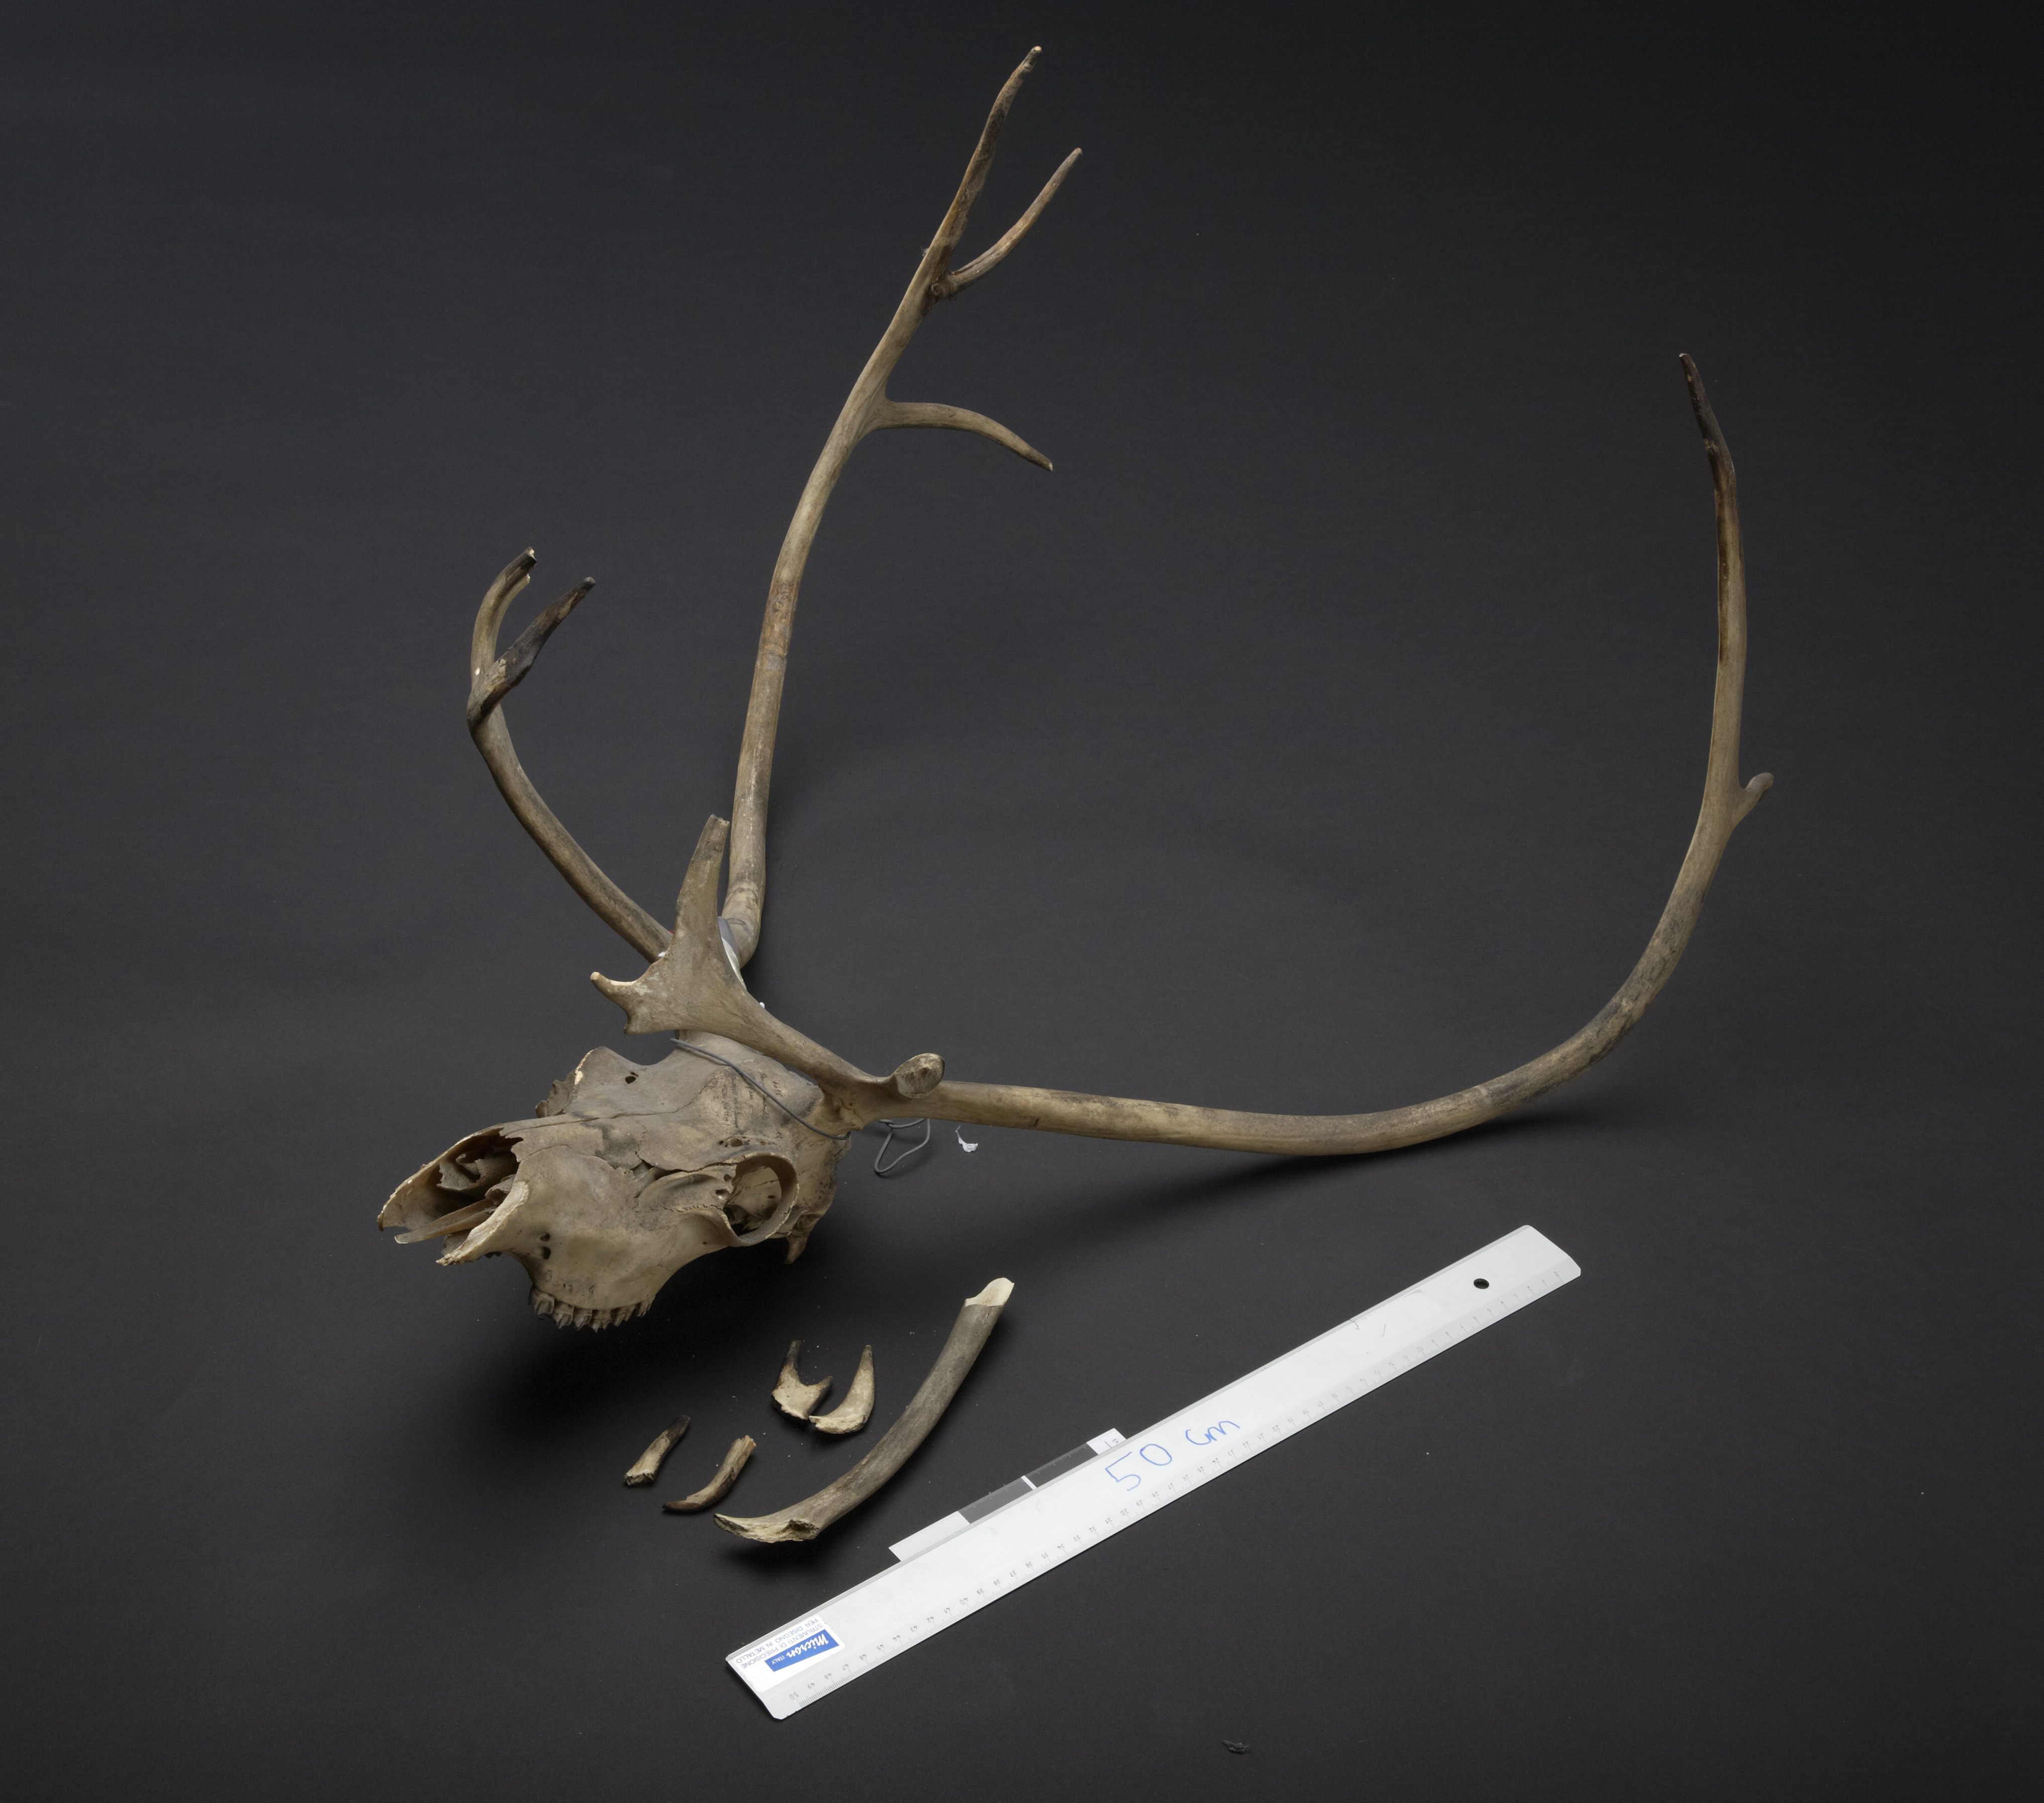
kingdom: Animalia
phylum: Chordata
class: Mammalia
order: Artiodactyla
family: Cervidae
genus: Rangifer
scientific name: Rangifer tarandus
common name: Reindeer
